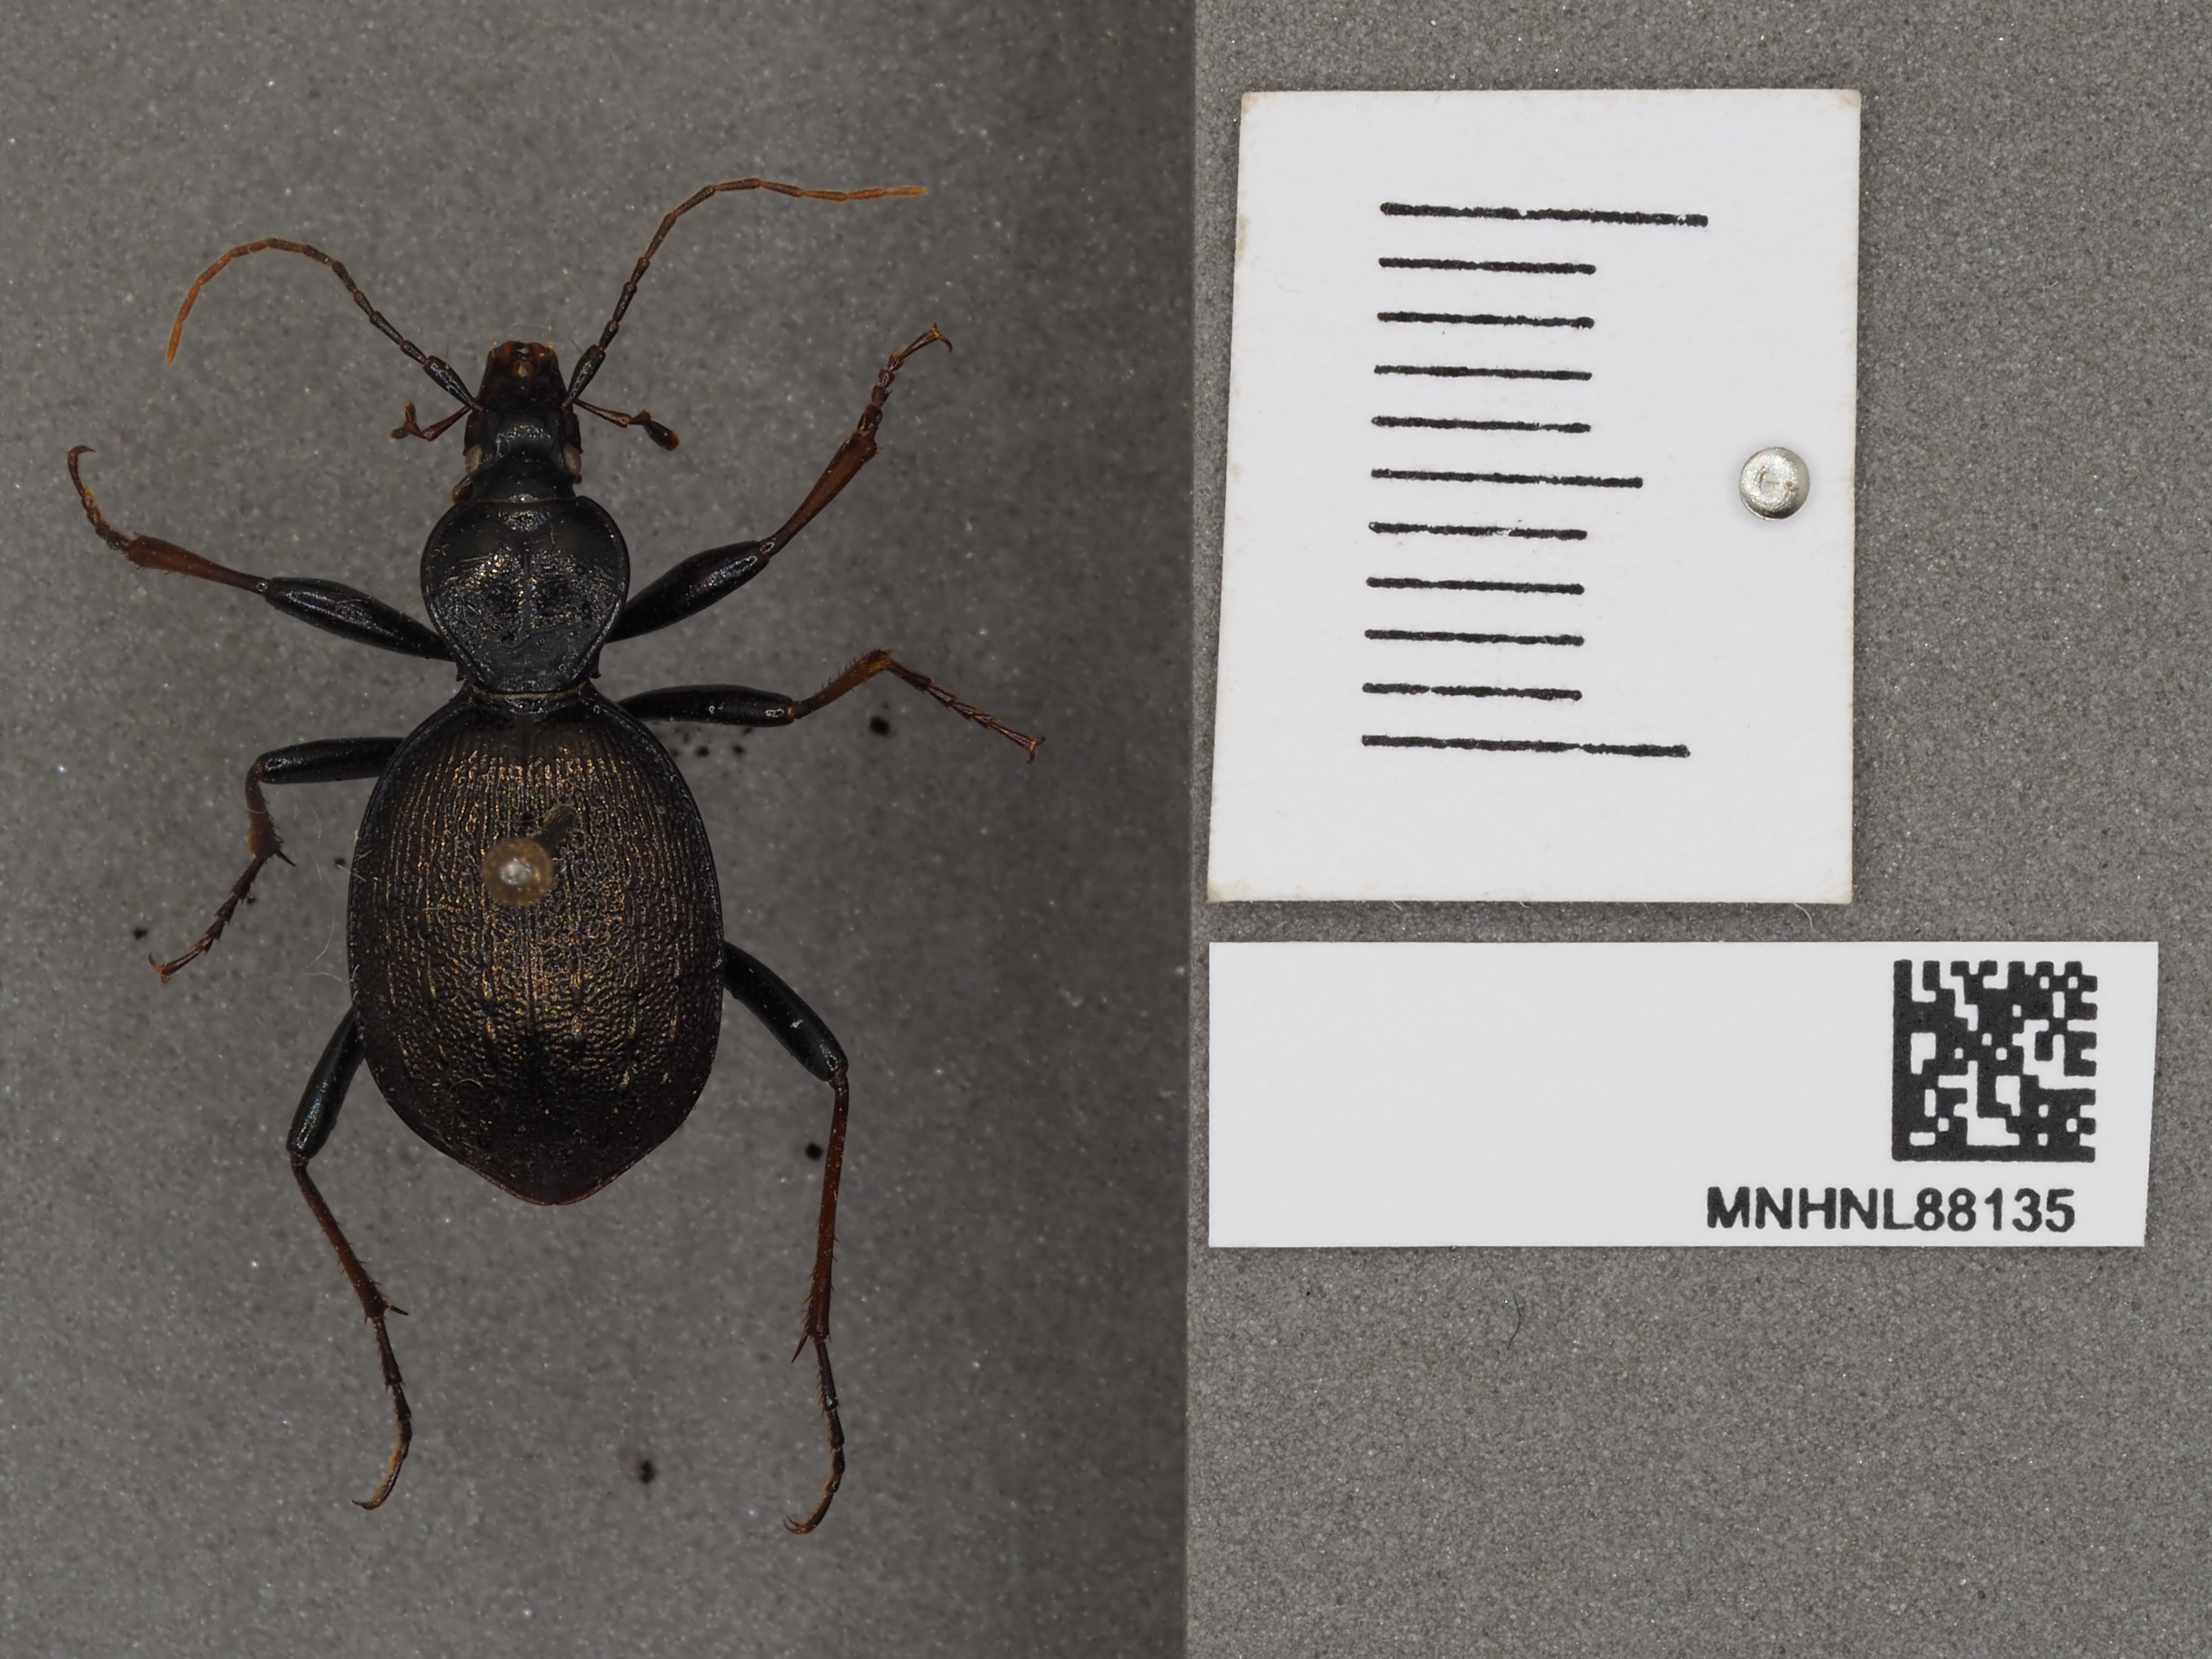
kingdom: Animalia
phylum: Arthropoda
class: Insecta
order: Coleoptera
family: Carabidae
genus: Cychrus
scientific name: Cychrus attenuatus
